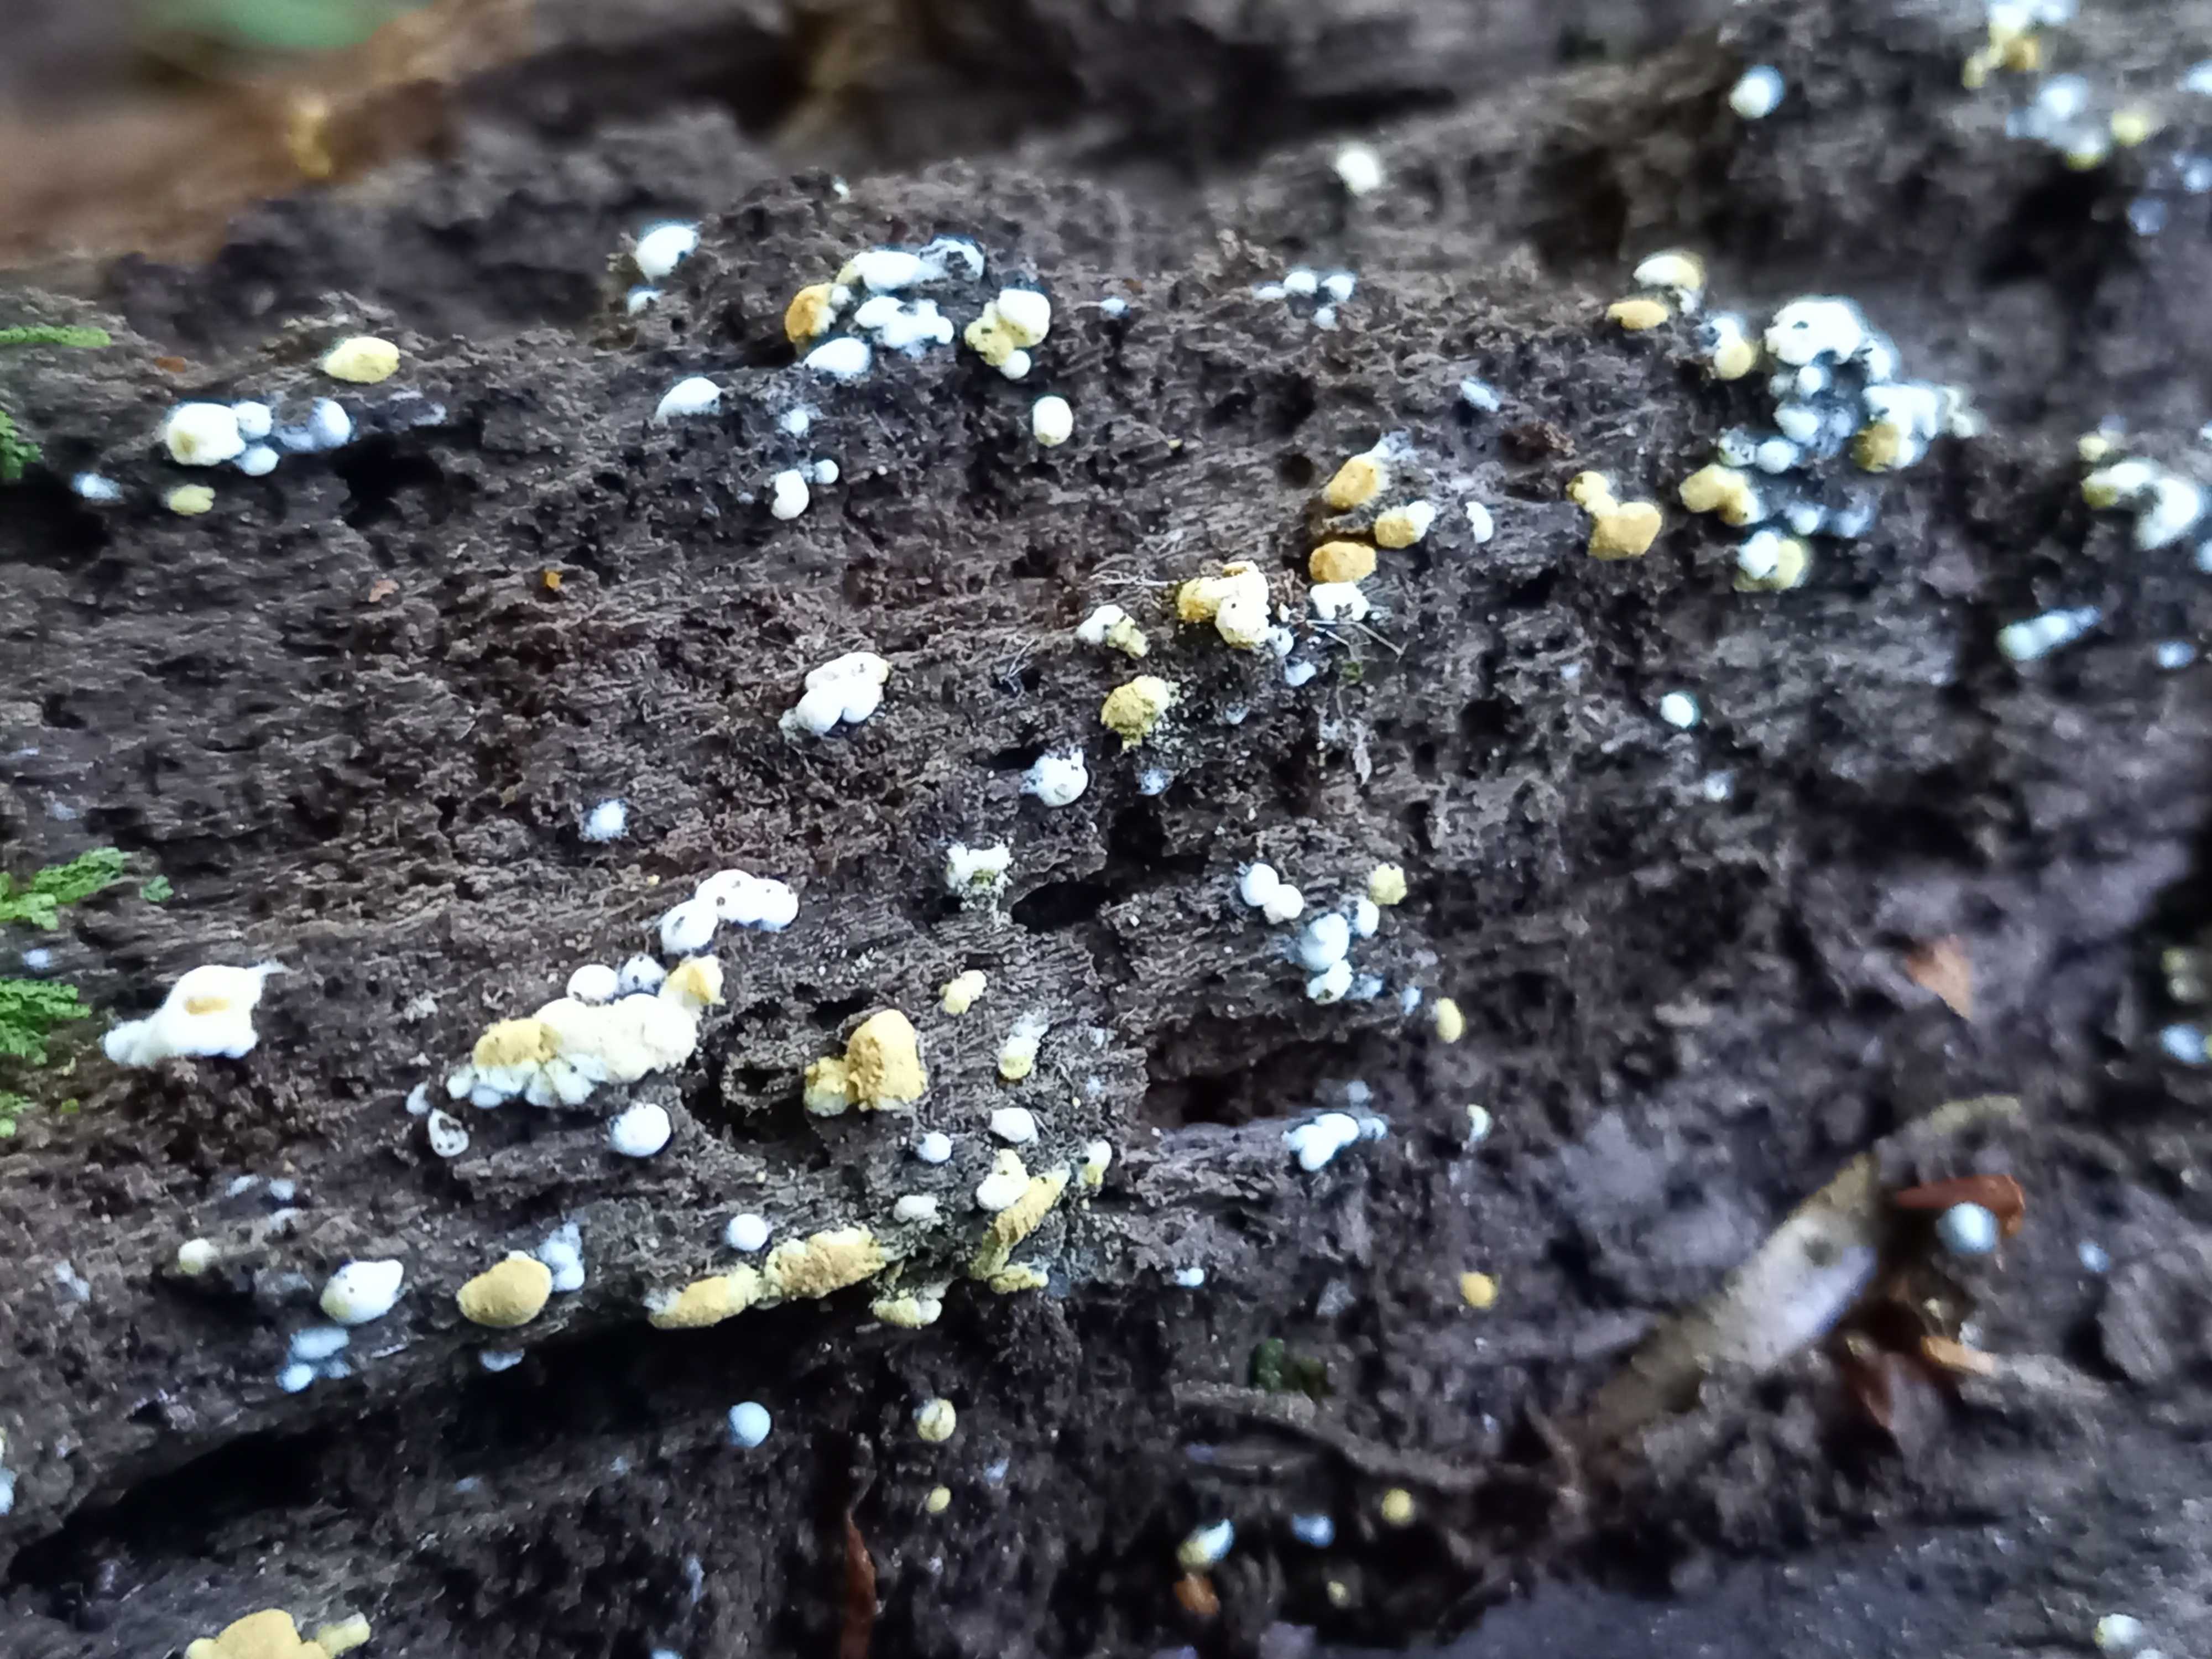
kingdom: Fungi
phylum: Basidiomycota
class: Agaricomycetes
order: Cantharellales
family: Botryobasidiaceae
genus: Botryobasidium
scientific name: Botryobasidium aureum
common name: gylden spindhinde
